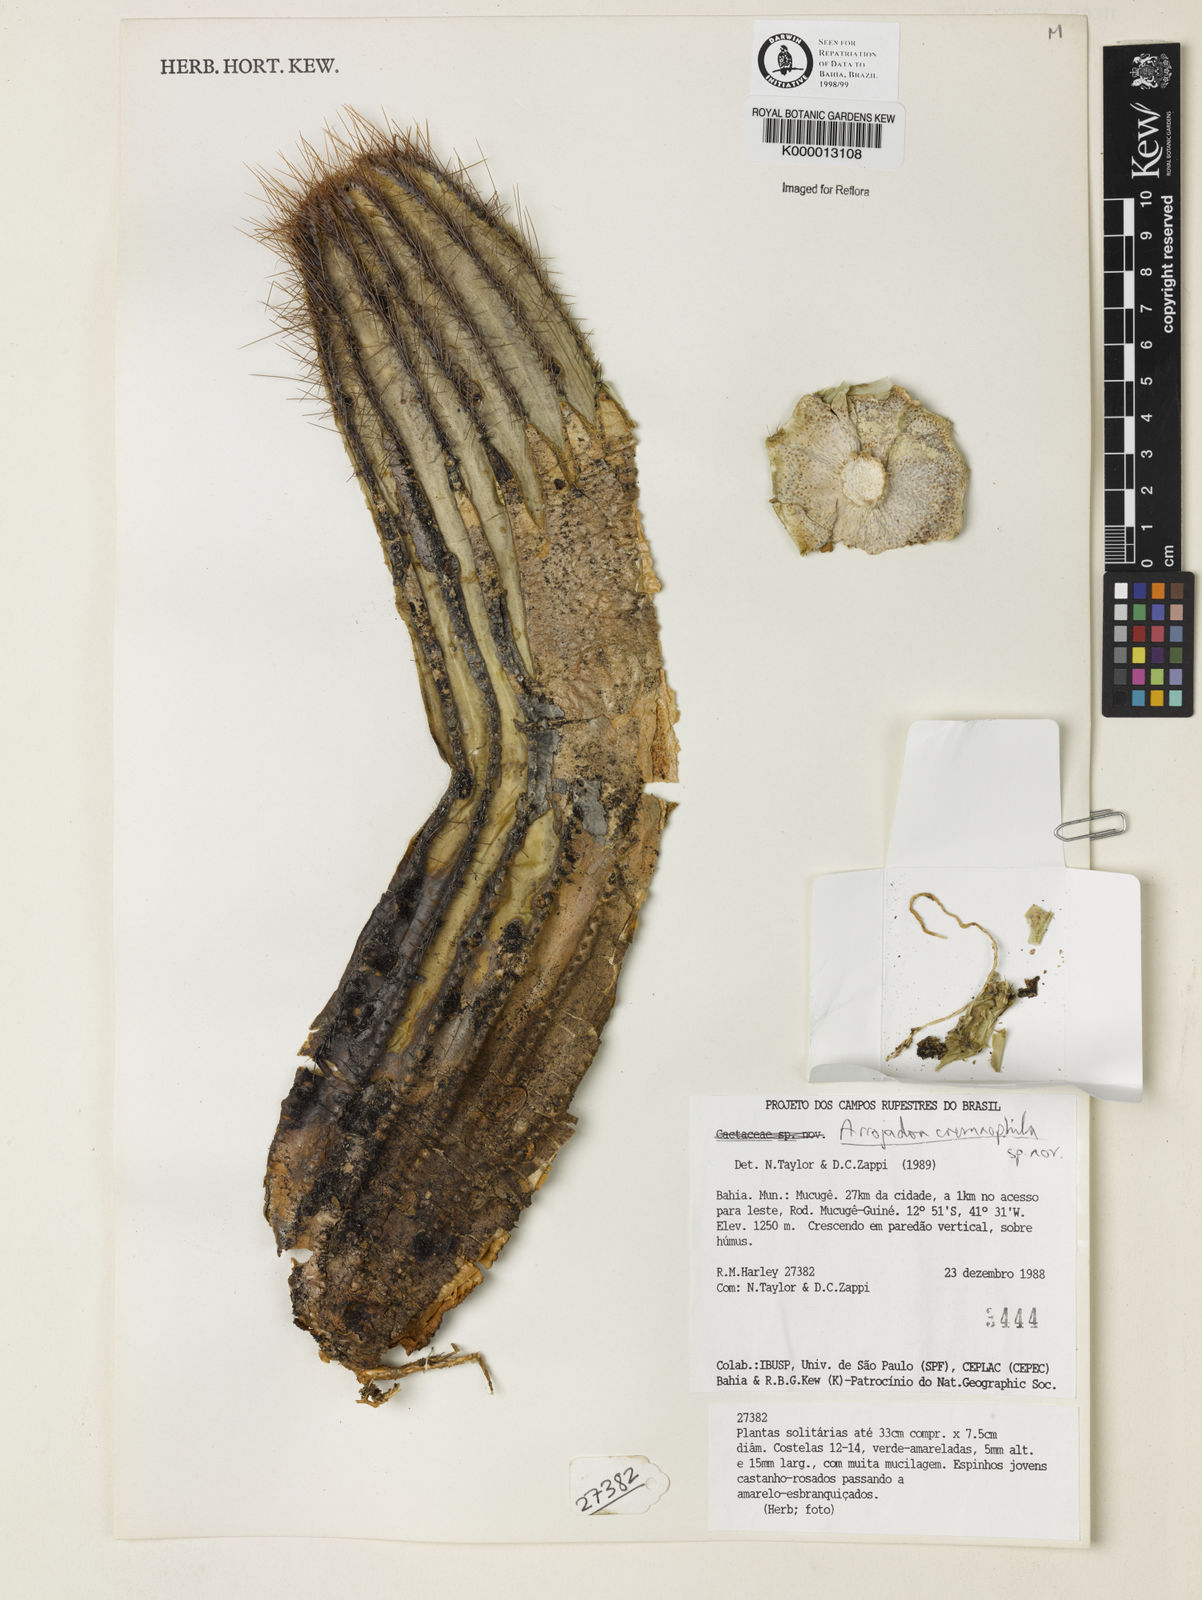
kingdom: Plantae
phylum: Tracheophyta
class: Magnoliopsida
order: Caryophyllales
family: Cactaceae
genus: Pierrebraunia
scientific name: Pierrebraunia bahiensis
